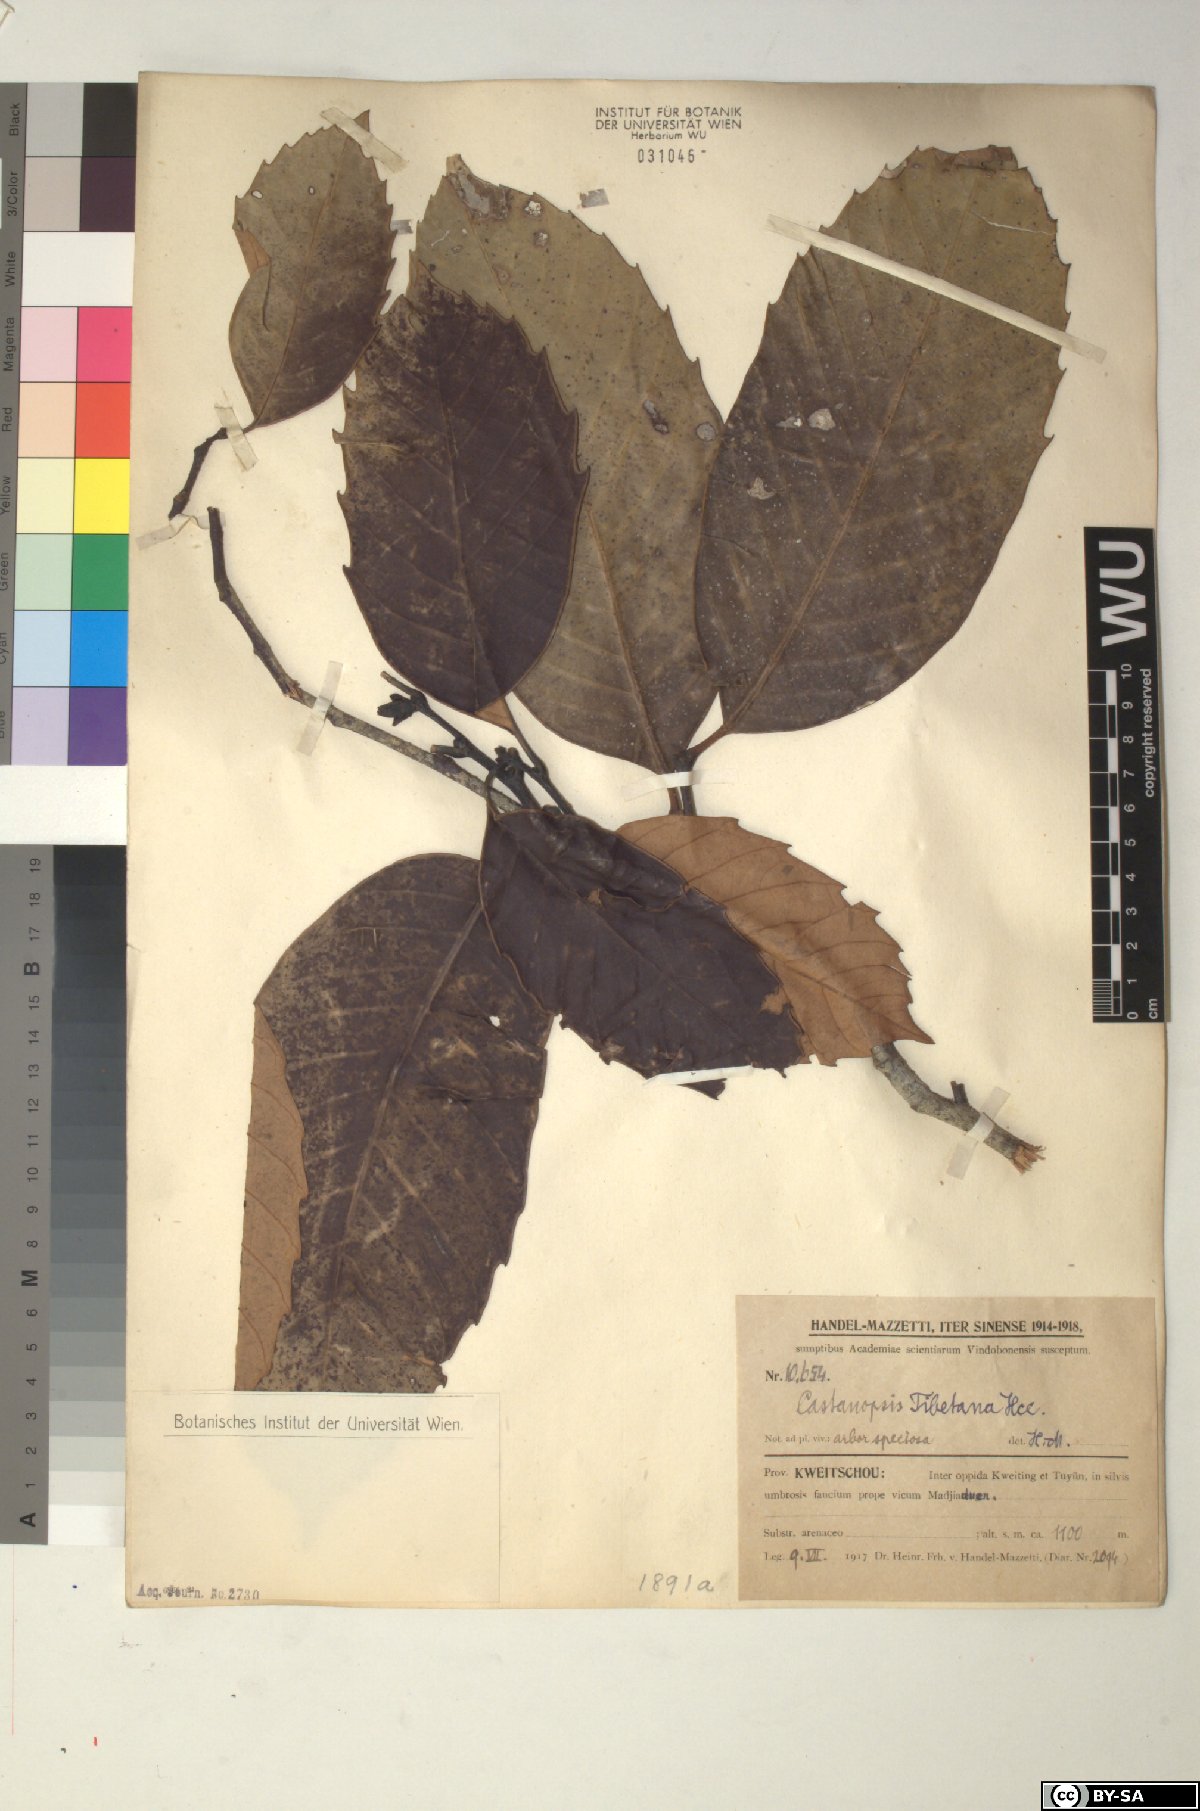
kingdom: Plantae
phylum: Tracheophyta
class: Magnoliopsida
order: Fagales
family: Fagaceae
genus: Castanopsis
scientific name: Castanopsis tibetana
